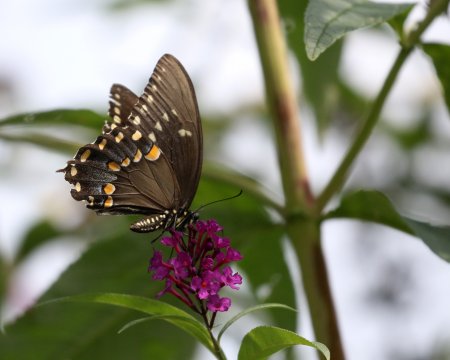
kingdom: Animalia
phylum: Arthropoda
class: Insecta
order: Lepidoptera
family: Papilionidae
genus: Pterourus
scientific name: Pterourus troilus
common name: Spicebush Swallowtail
